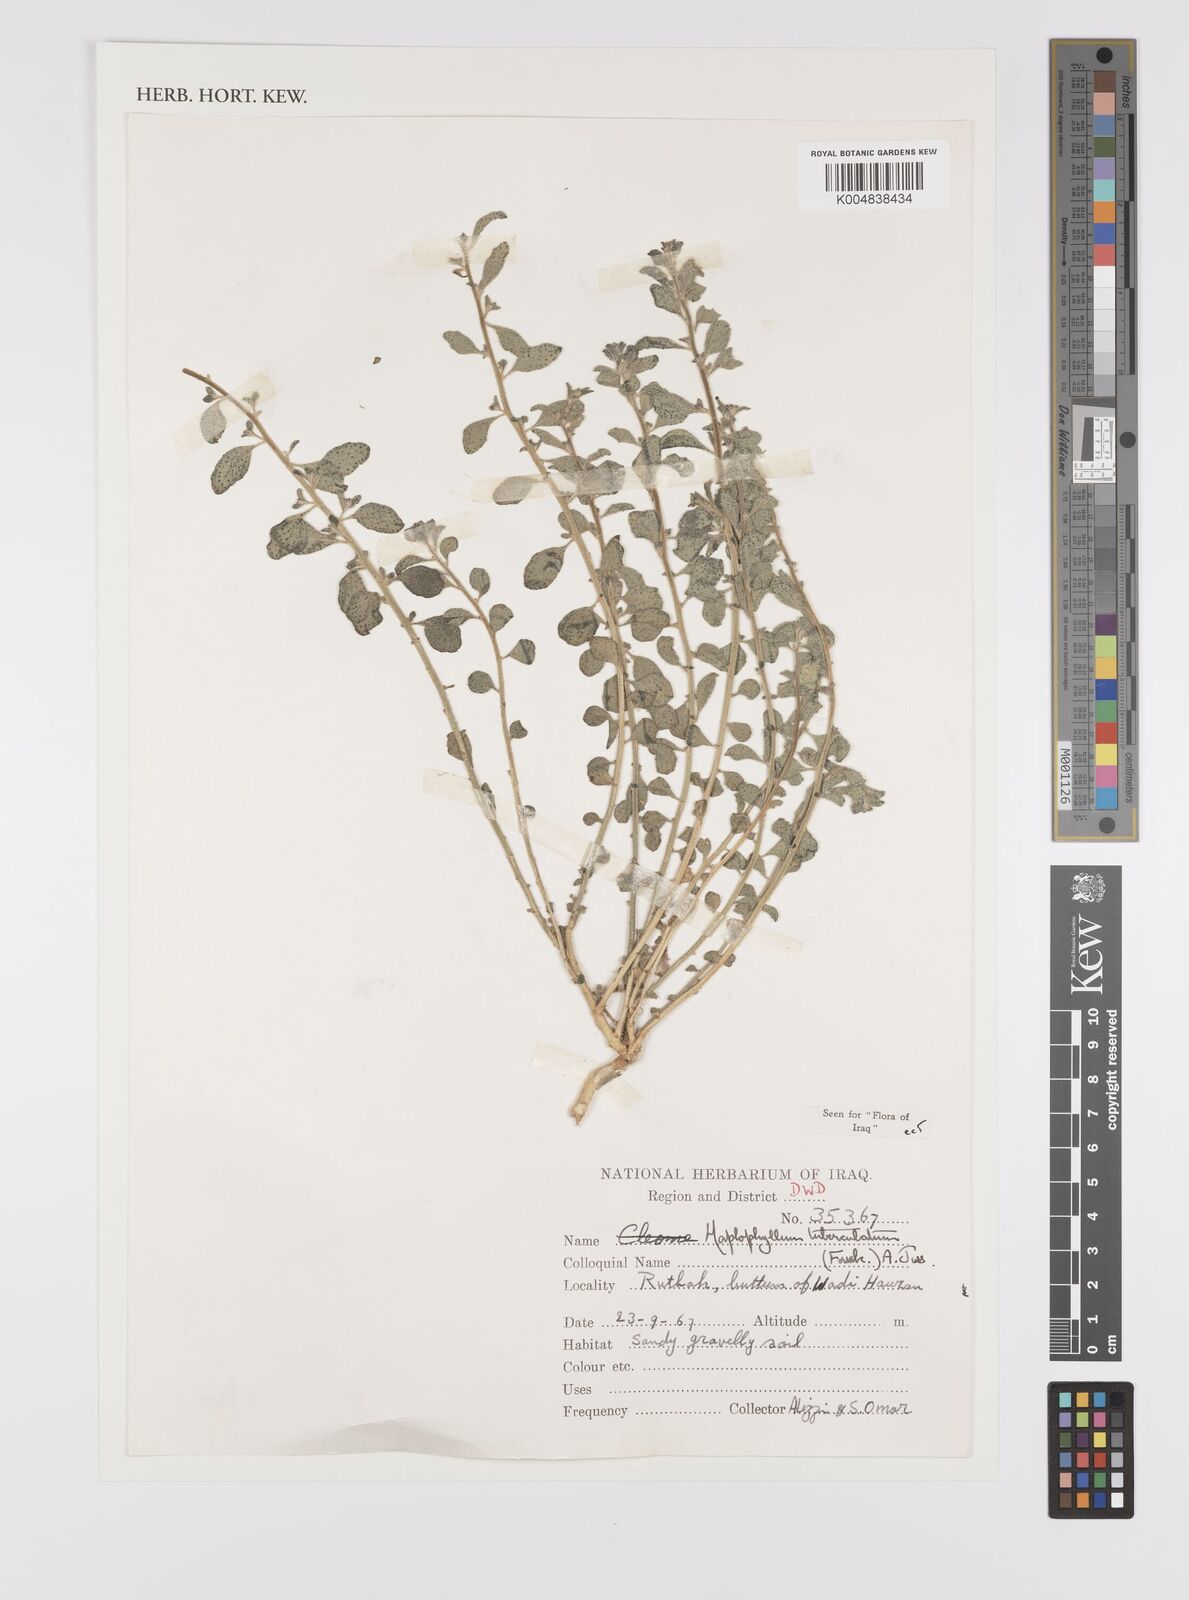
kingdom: Plantae
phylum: Tracheophyta
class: Magnoliopsida
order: Sapindales
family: Rutaceae
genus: Haplophyllum
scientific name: Haplophyllum tuberculatum
